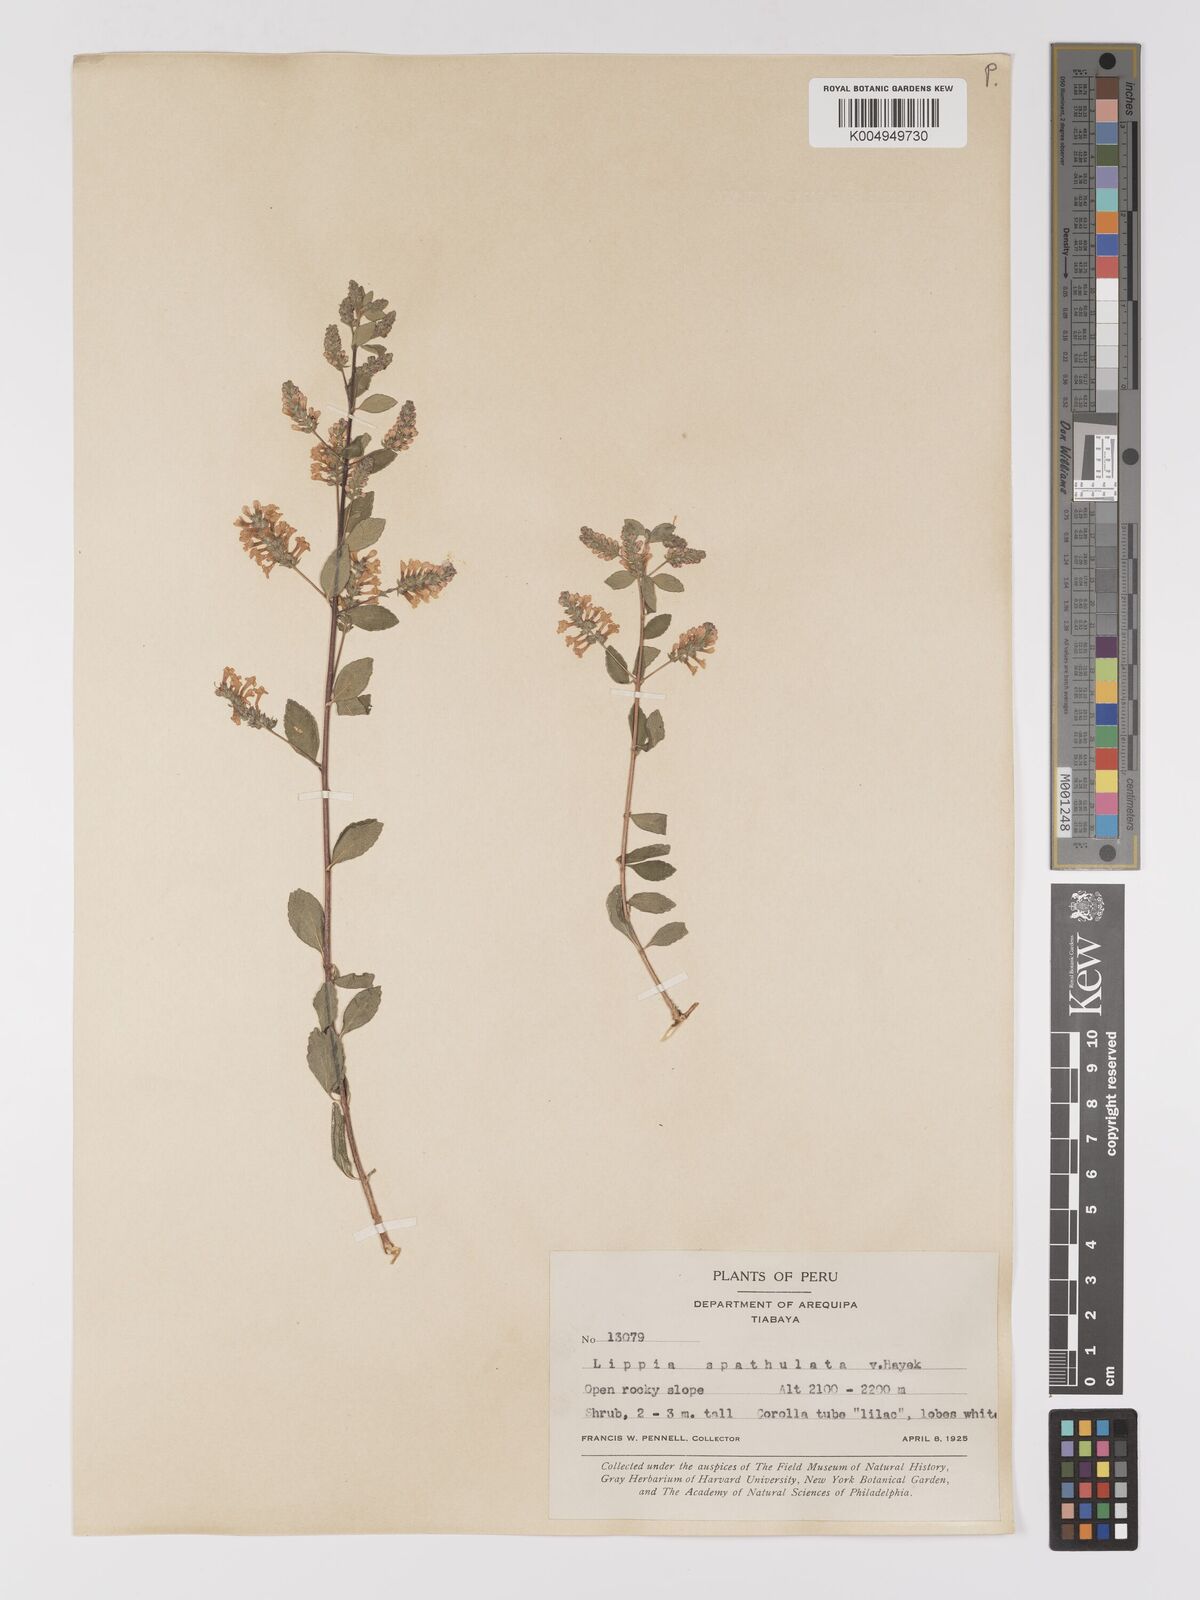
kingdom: Plantae
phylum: Tracheophyta
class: Magnoliopsida
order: Lamiales
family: Verbenaceae
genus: Aloysia
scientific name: Aloysia spathulata
